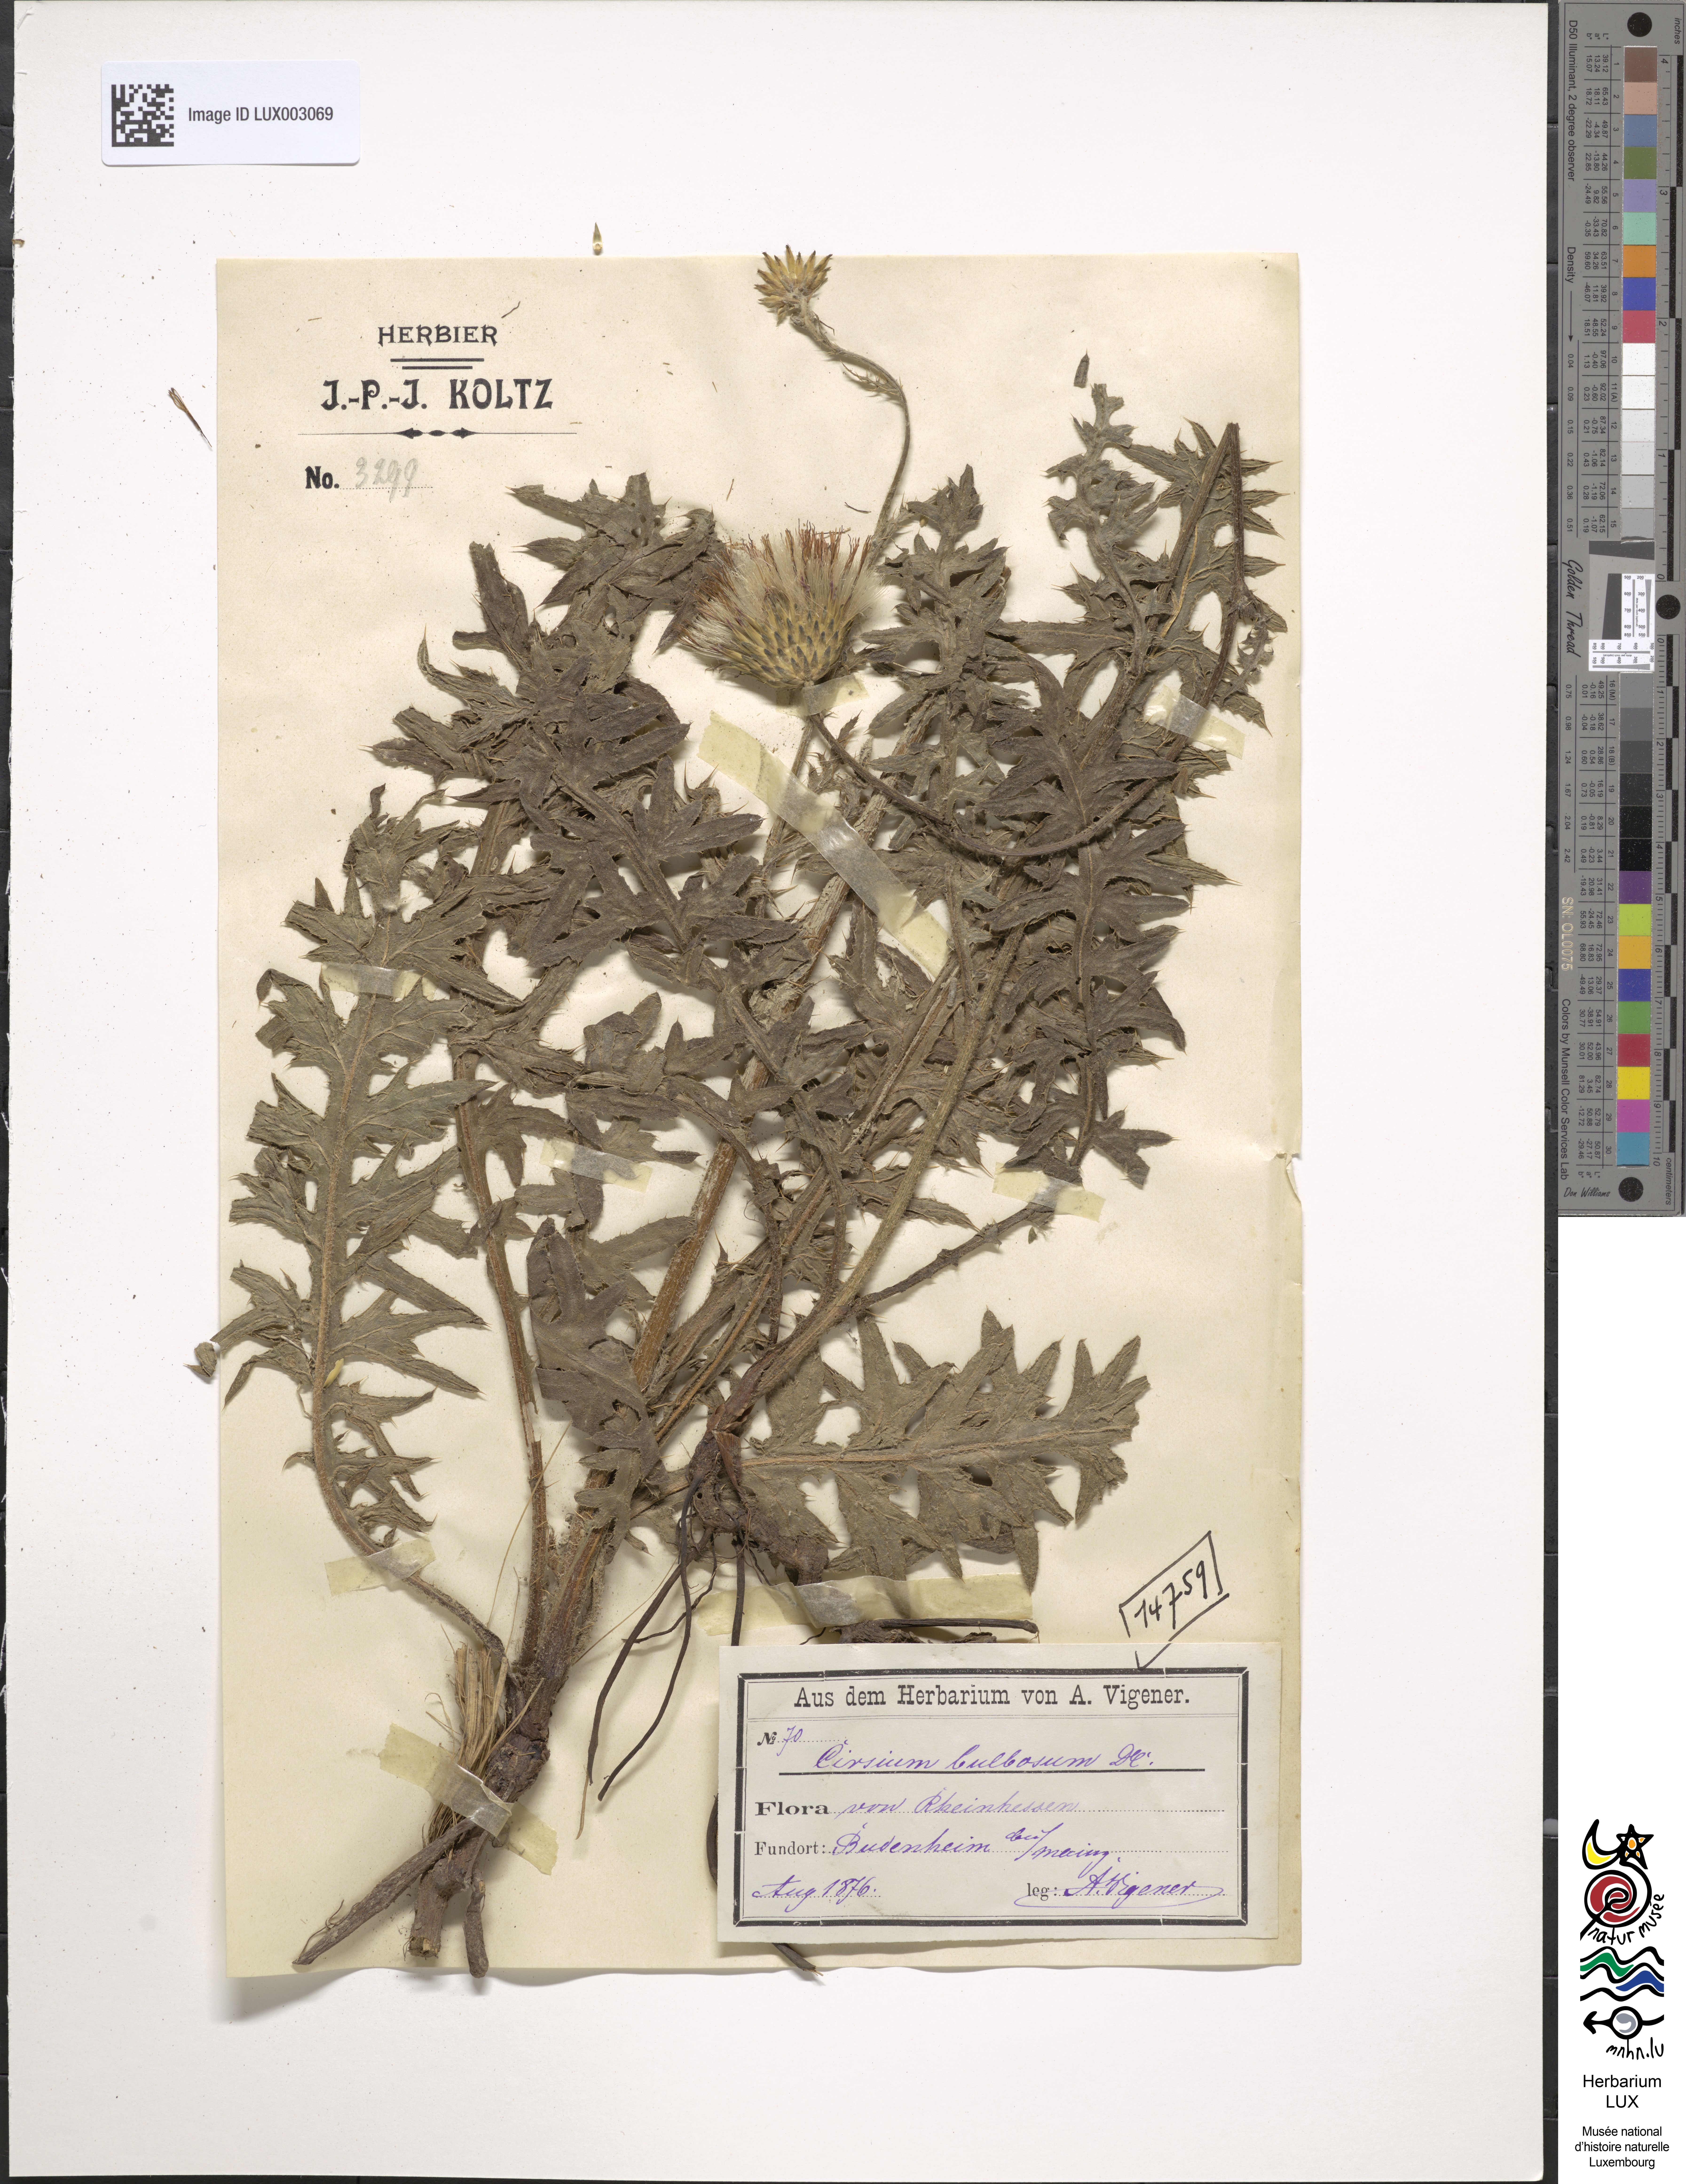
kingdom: Plantae
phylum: Tracheophyta
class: Magnoliopsida
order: Asterales
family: Asteraceae
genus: Cirsium
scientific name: Cirsium tuberosum
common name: Tuberous thistle
